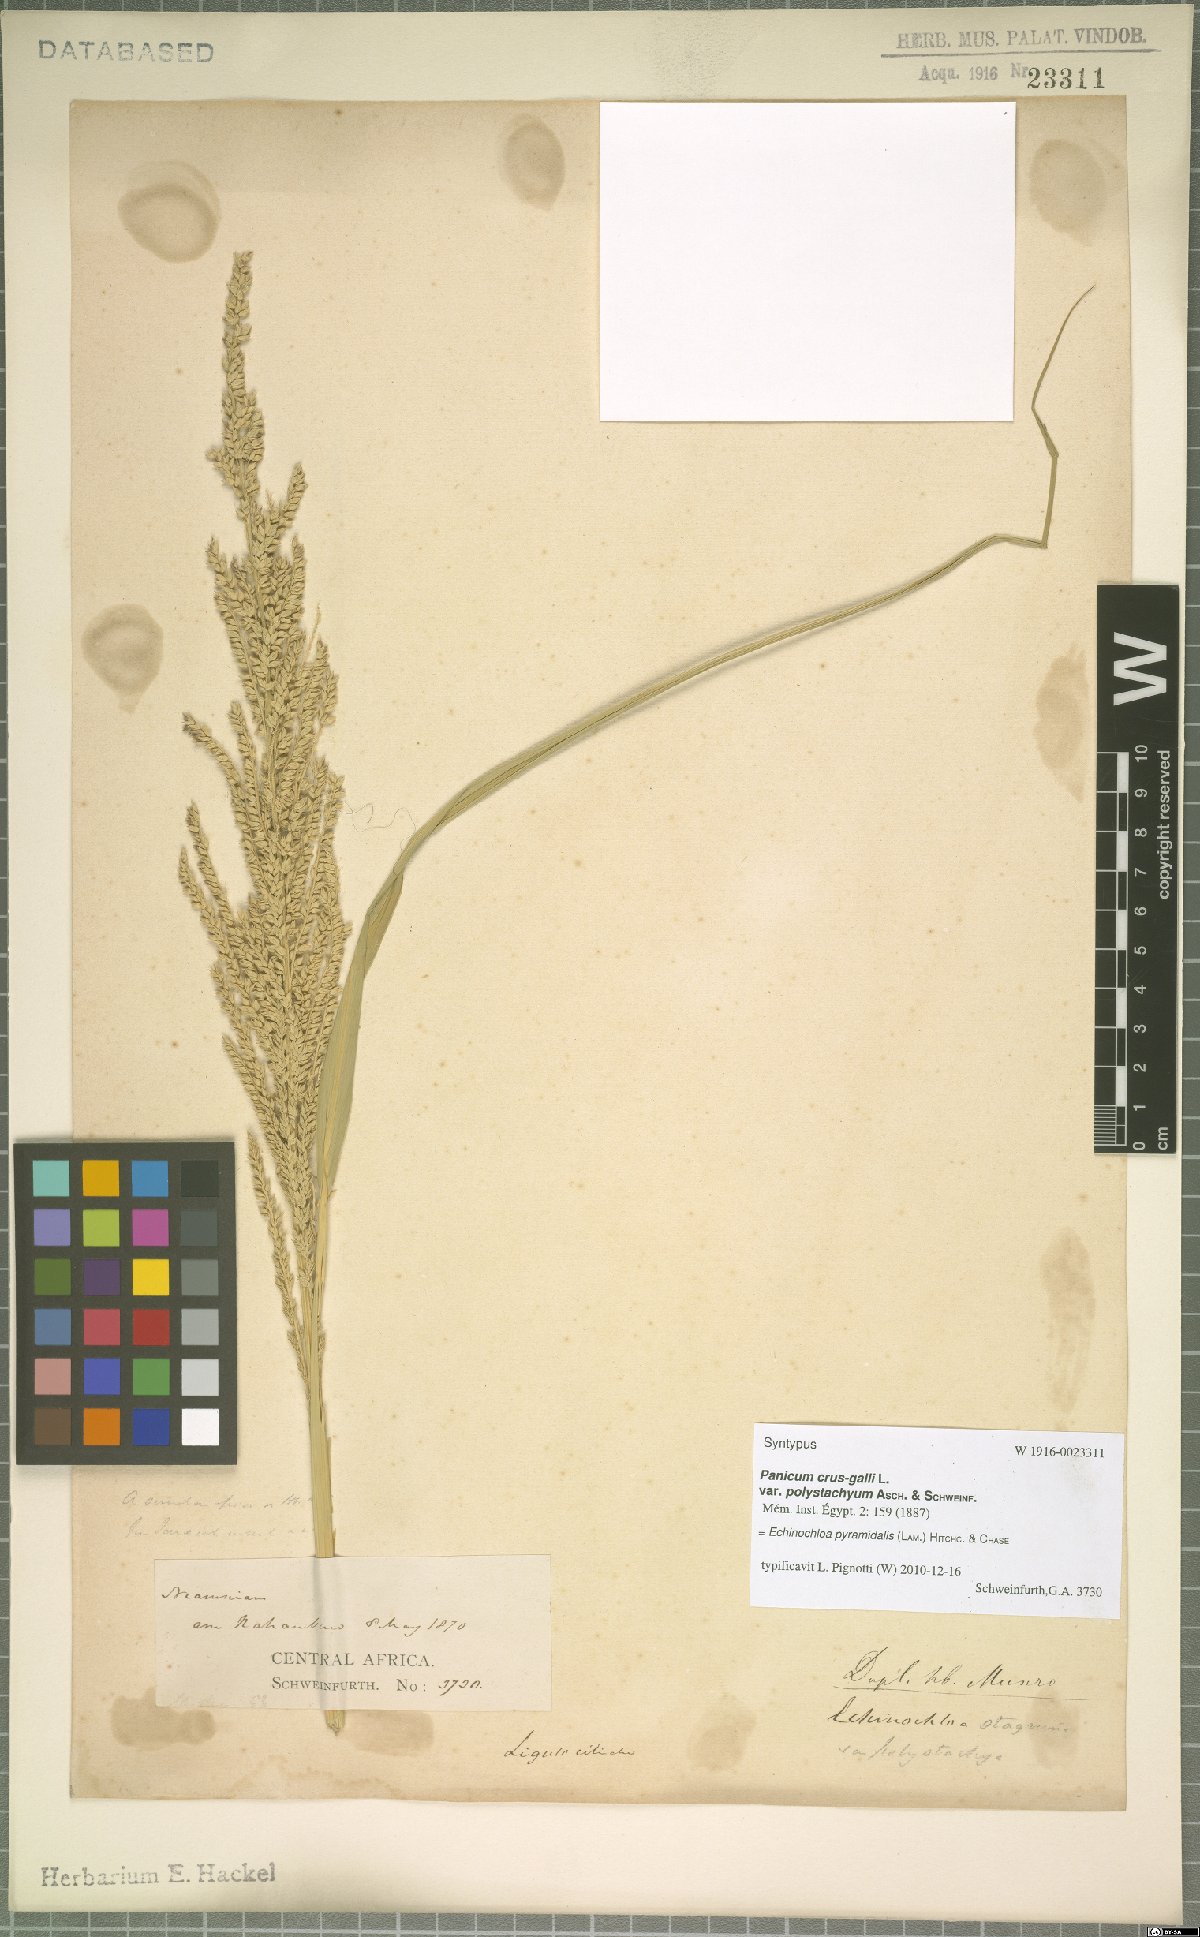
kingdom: Plantae
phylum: Tracheophyta
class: Liliopsida
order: Poales
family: Poaceae
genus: Echinochloa
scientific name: Echinochloa pyramidalis
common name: Antelope grass
